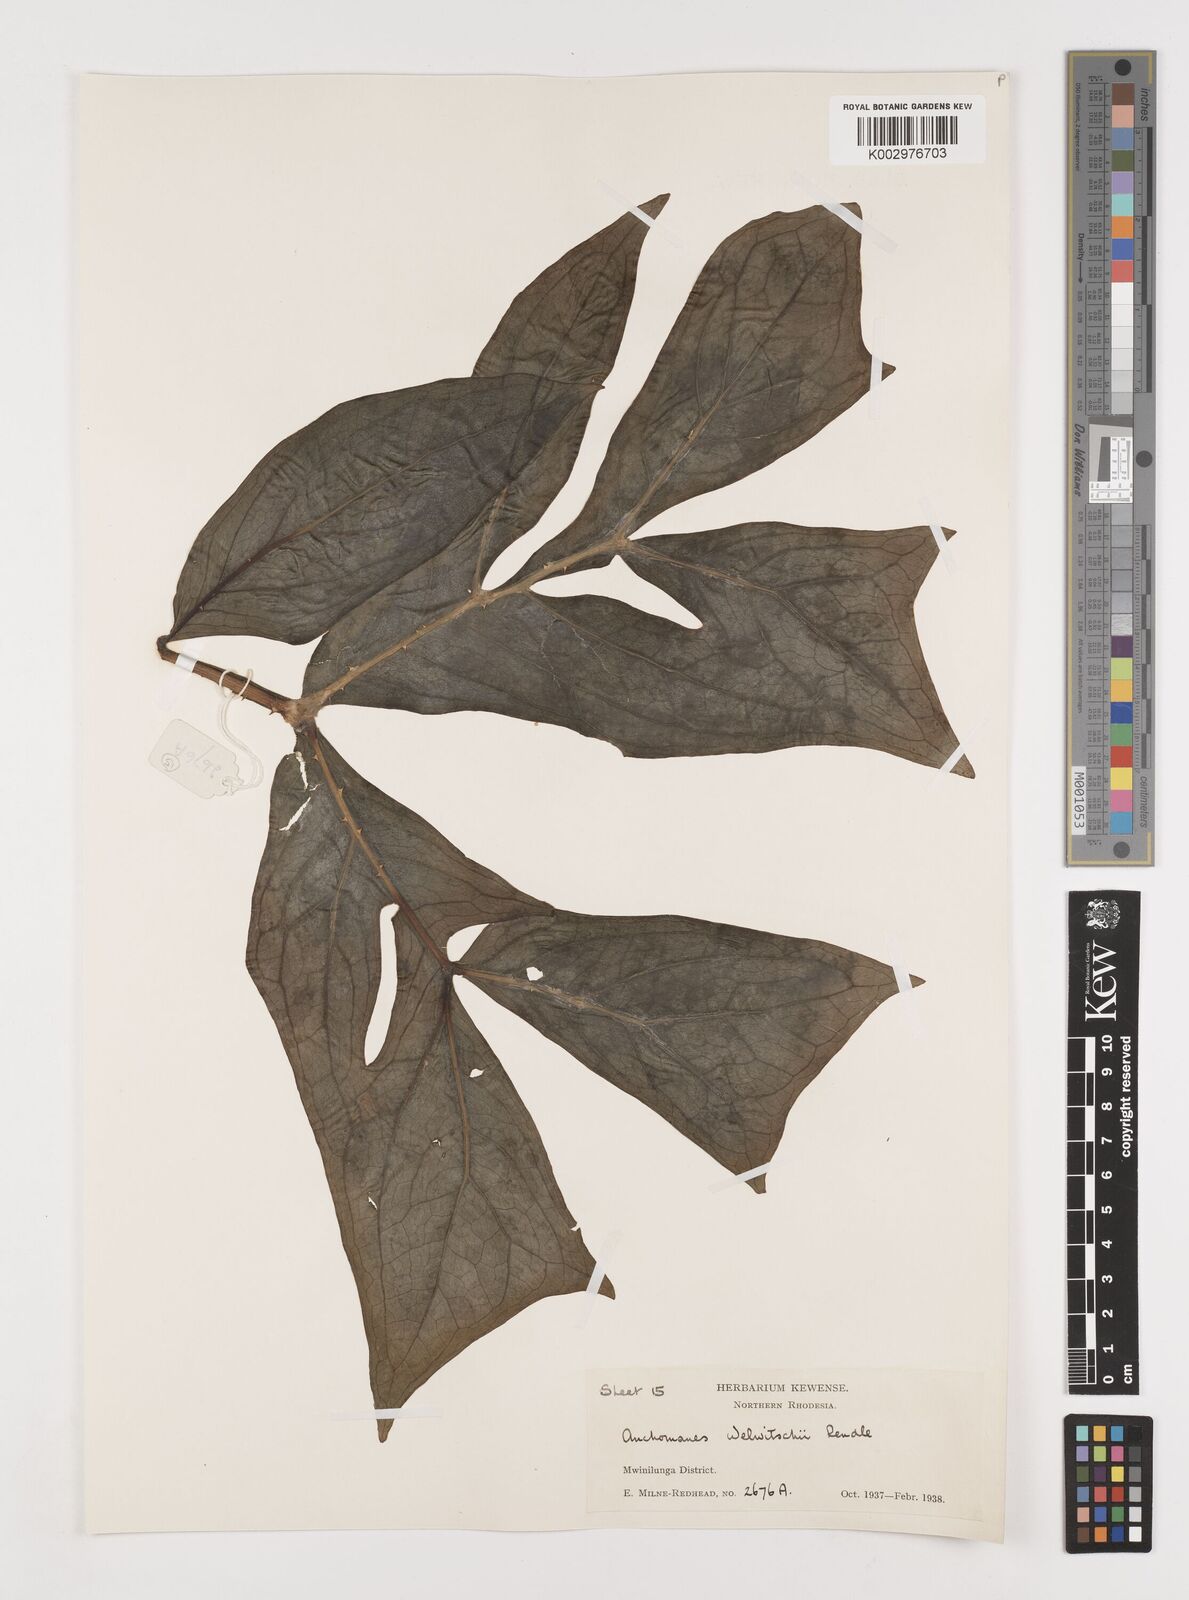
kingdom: Plantae
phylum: Tracheophyta
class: Liliopsida
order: Alismatales
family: Araceae
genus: Anchomanes
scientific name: Anchomanes difformis
